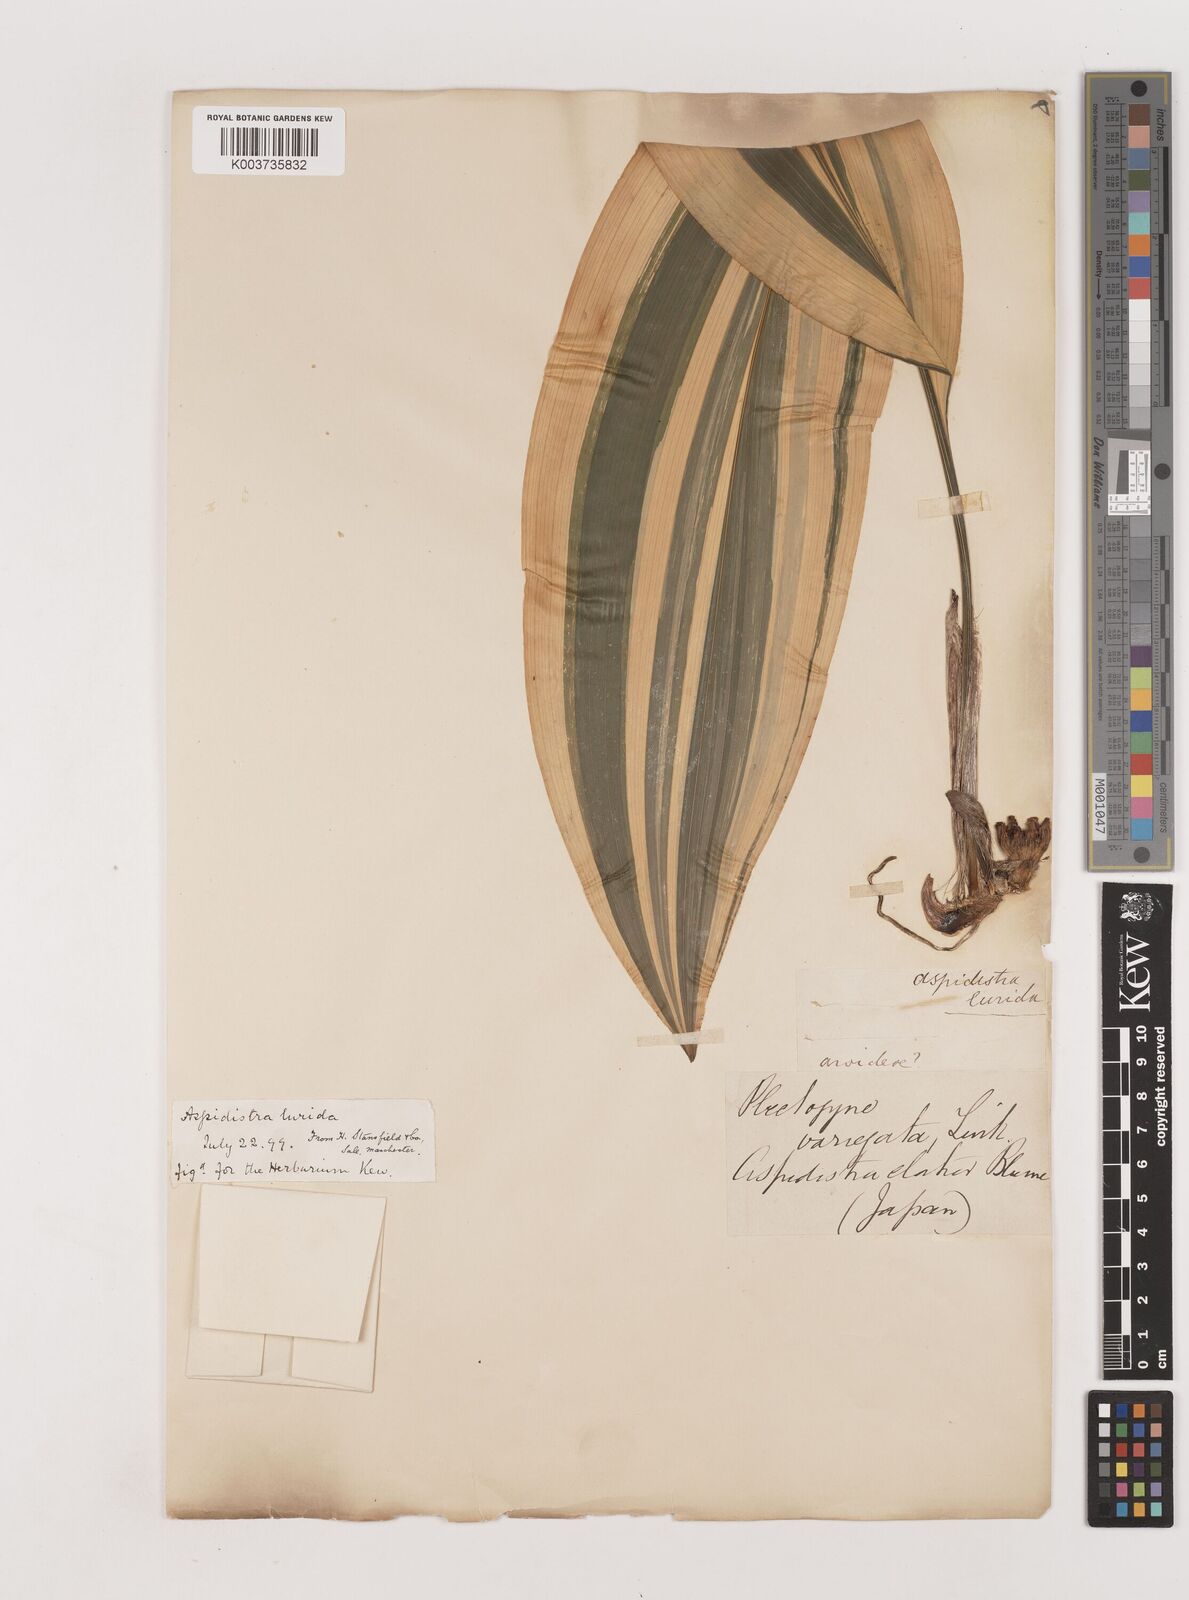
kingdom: Plantae
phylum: Tracheophyta
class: Liliopsida
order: Asparagales
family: Asparagaceae
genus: Aspidistra
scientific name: Aspidistra lurida
